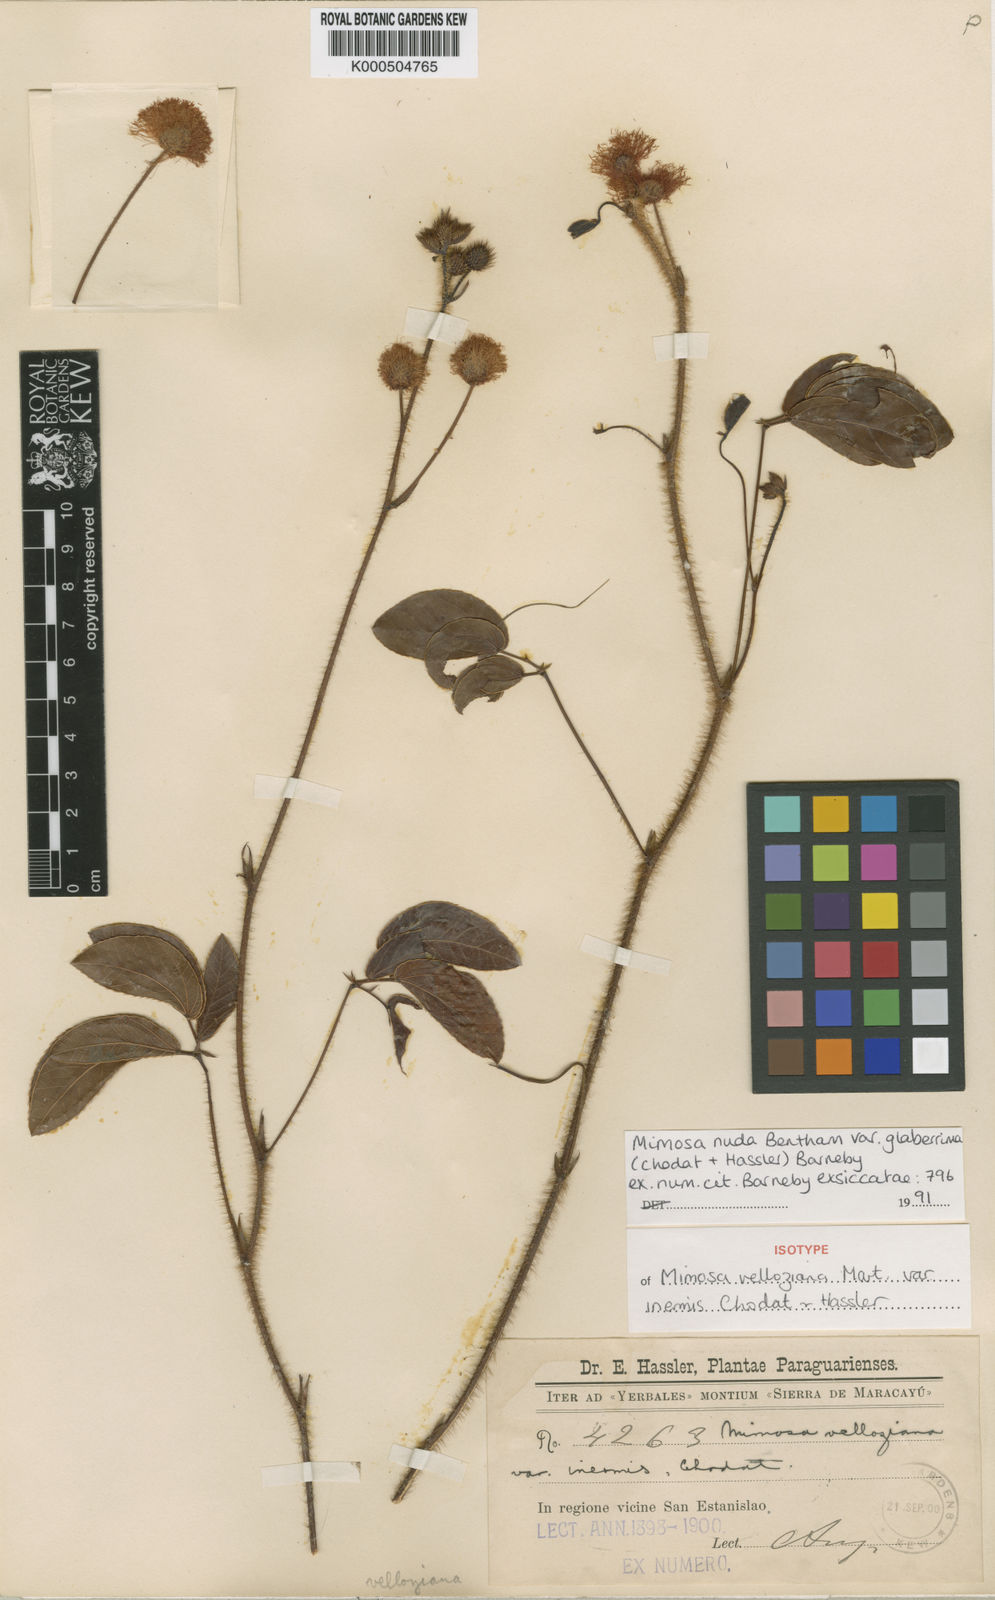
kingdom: Plantae
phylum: Tracheophyta
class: Magnoliopsida
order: Fabales
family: Fabaceae
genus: Mimosa
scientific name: Mimosa debilis
